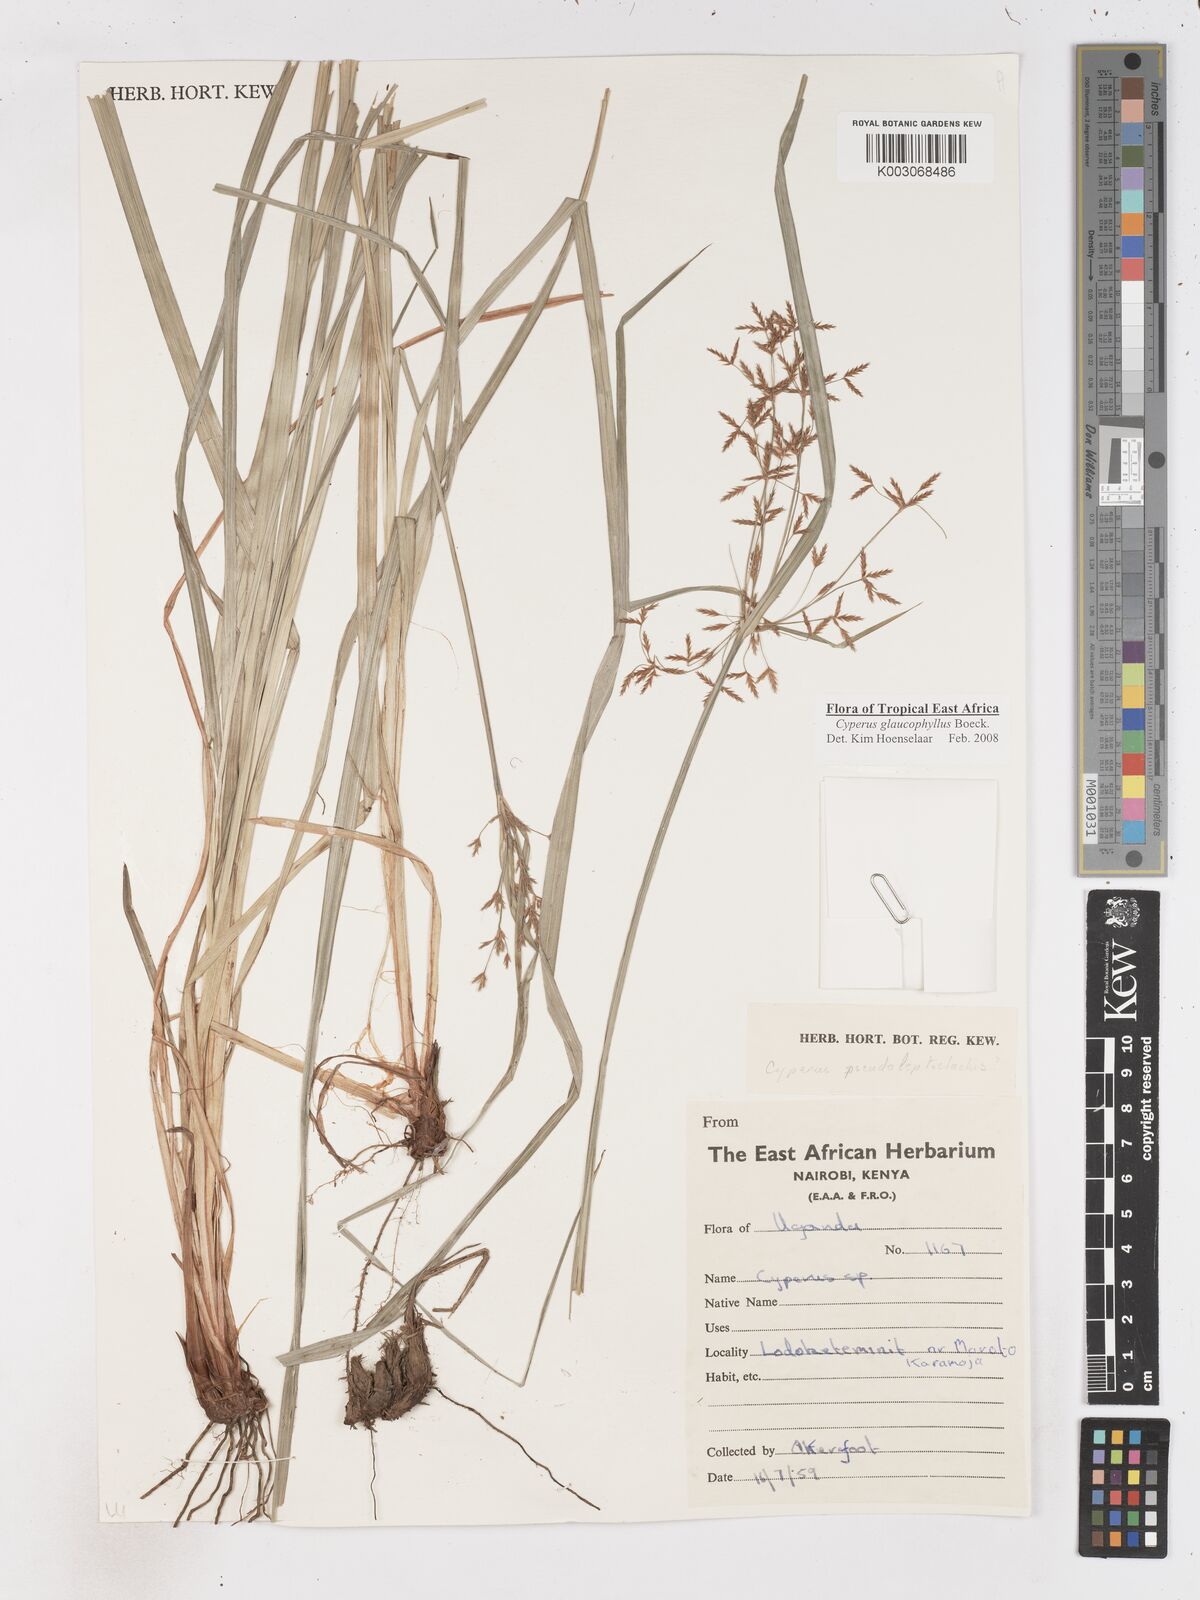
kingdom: Plantae
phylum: Tracheophyta
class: Liliopsida
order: Poales
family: Cyperaceae
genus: Cyperus
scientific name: Cyperus glaucophyllus
